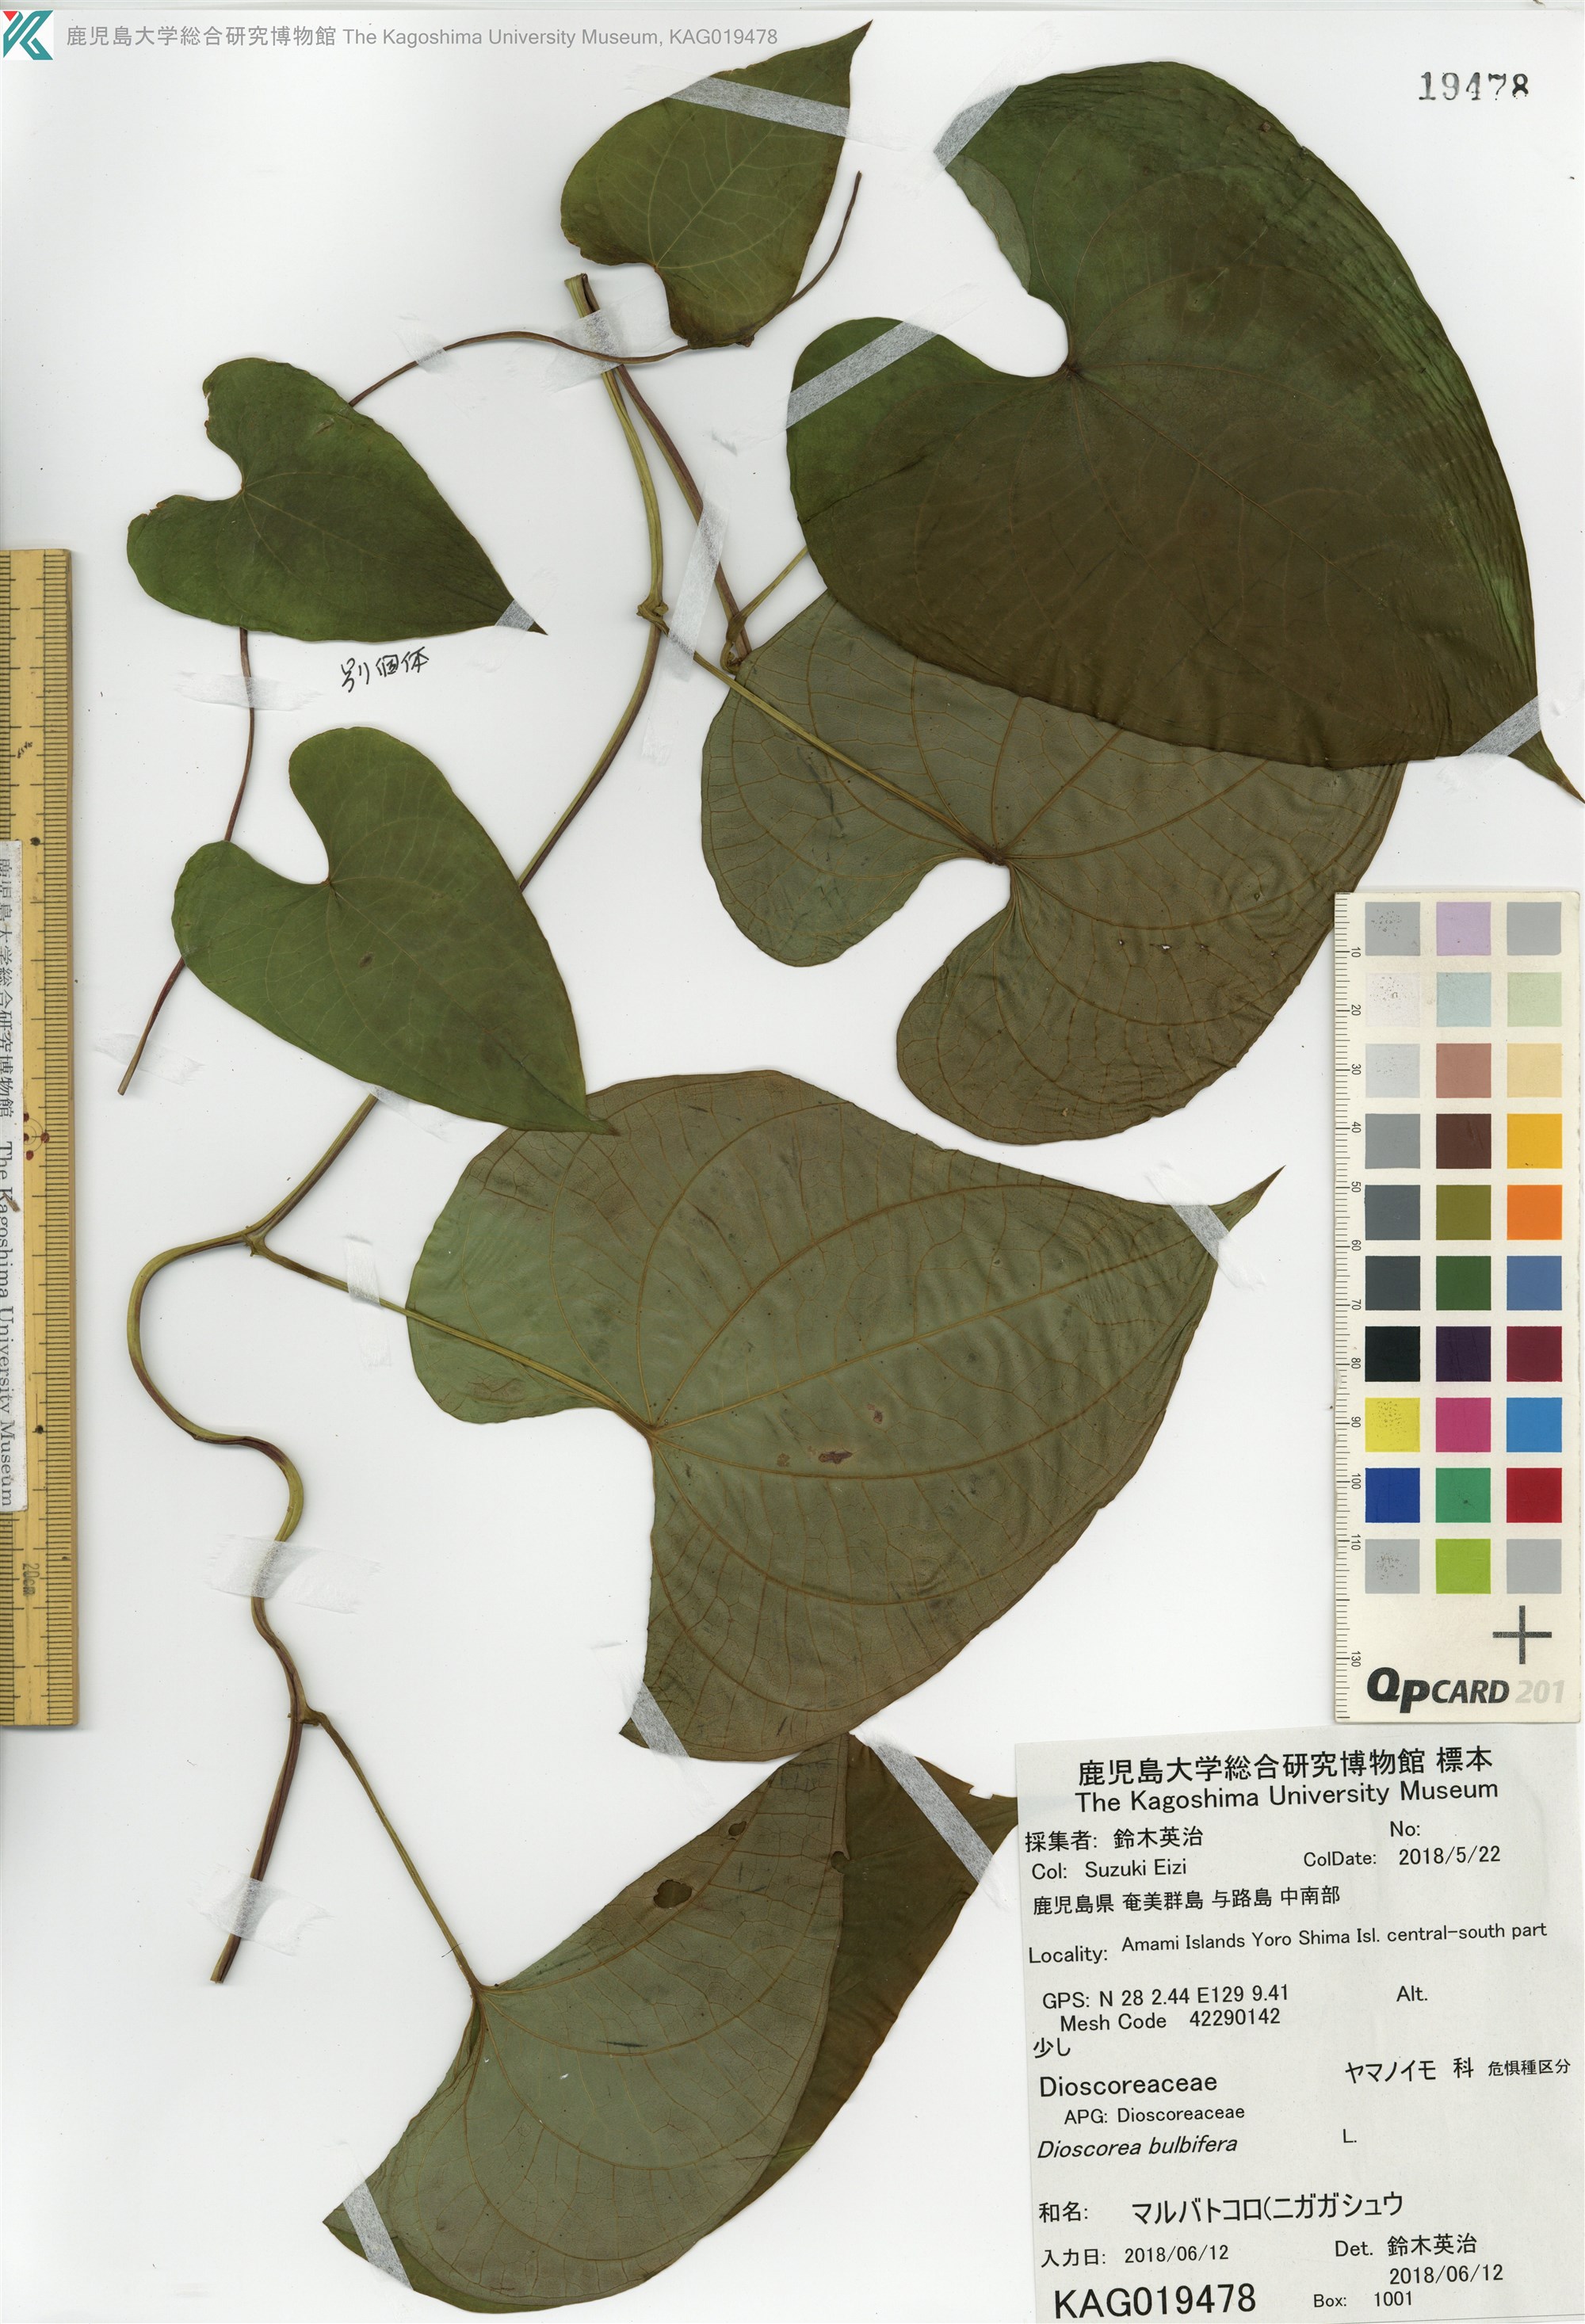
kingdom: Plantae
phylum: Tracheophyta
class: Liliopsida
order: Dioscoreales
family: Dioscoreaceae
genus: Dioscorea
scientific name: Dioscorea bulbifera
